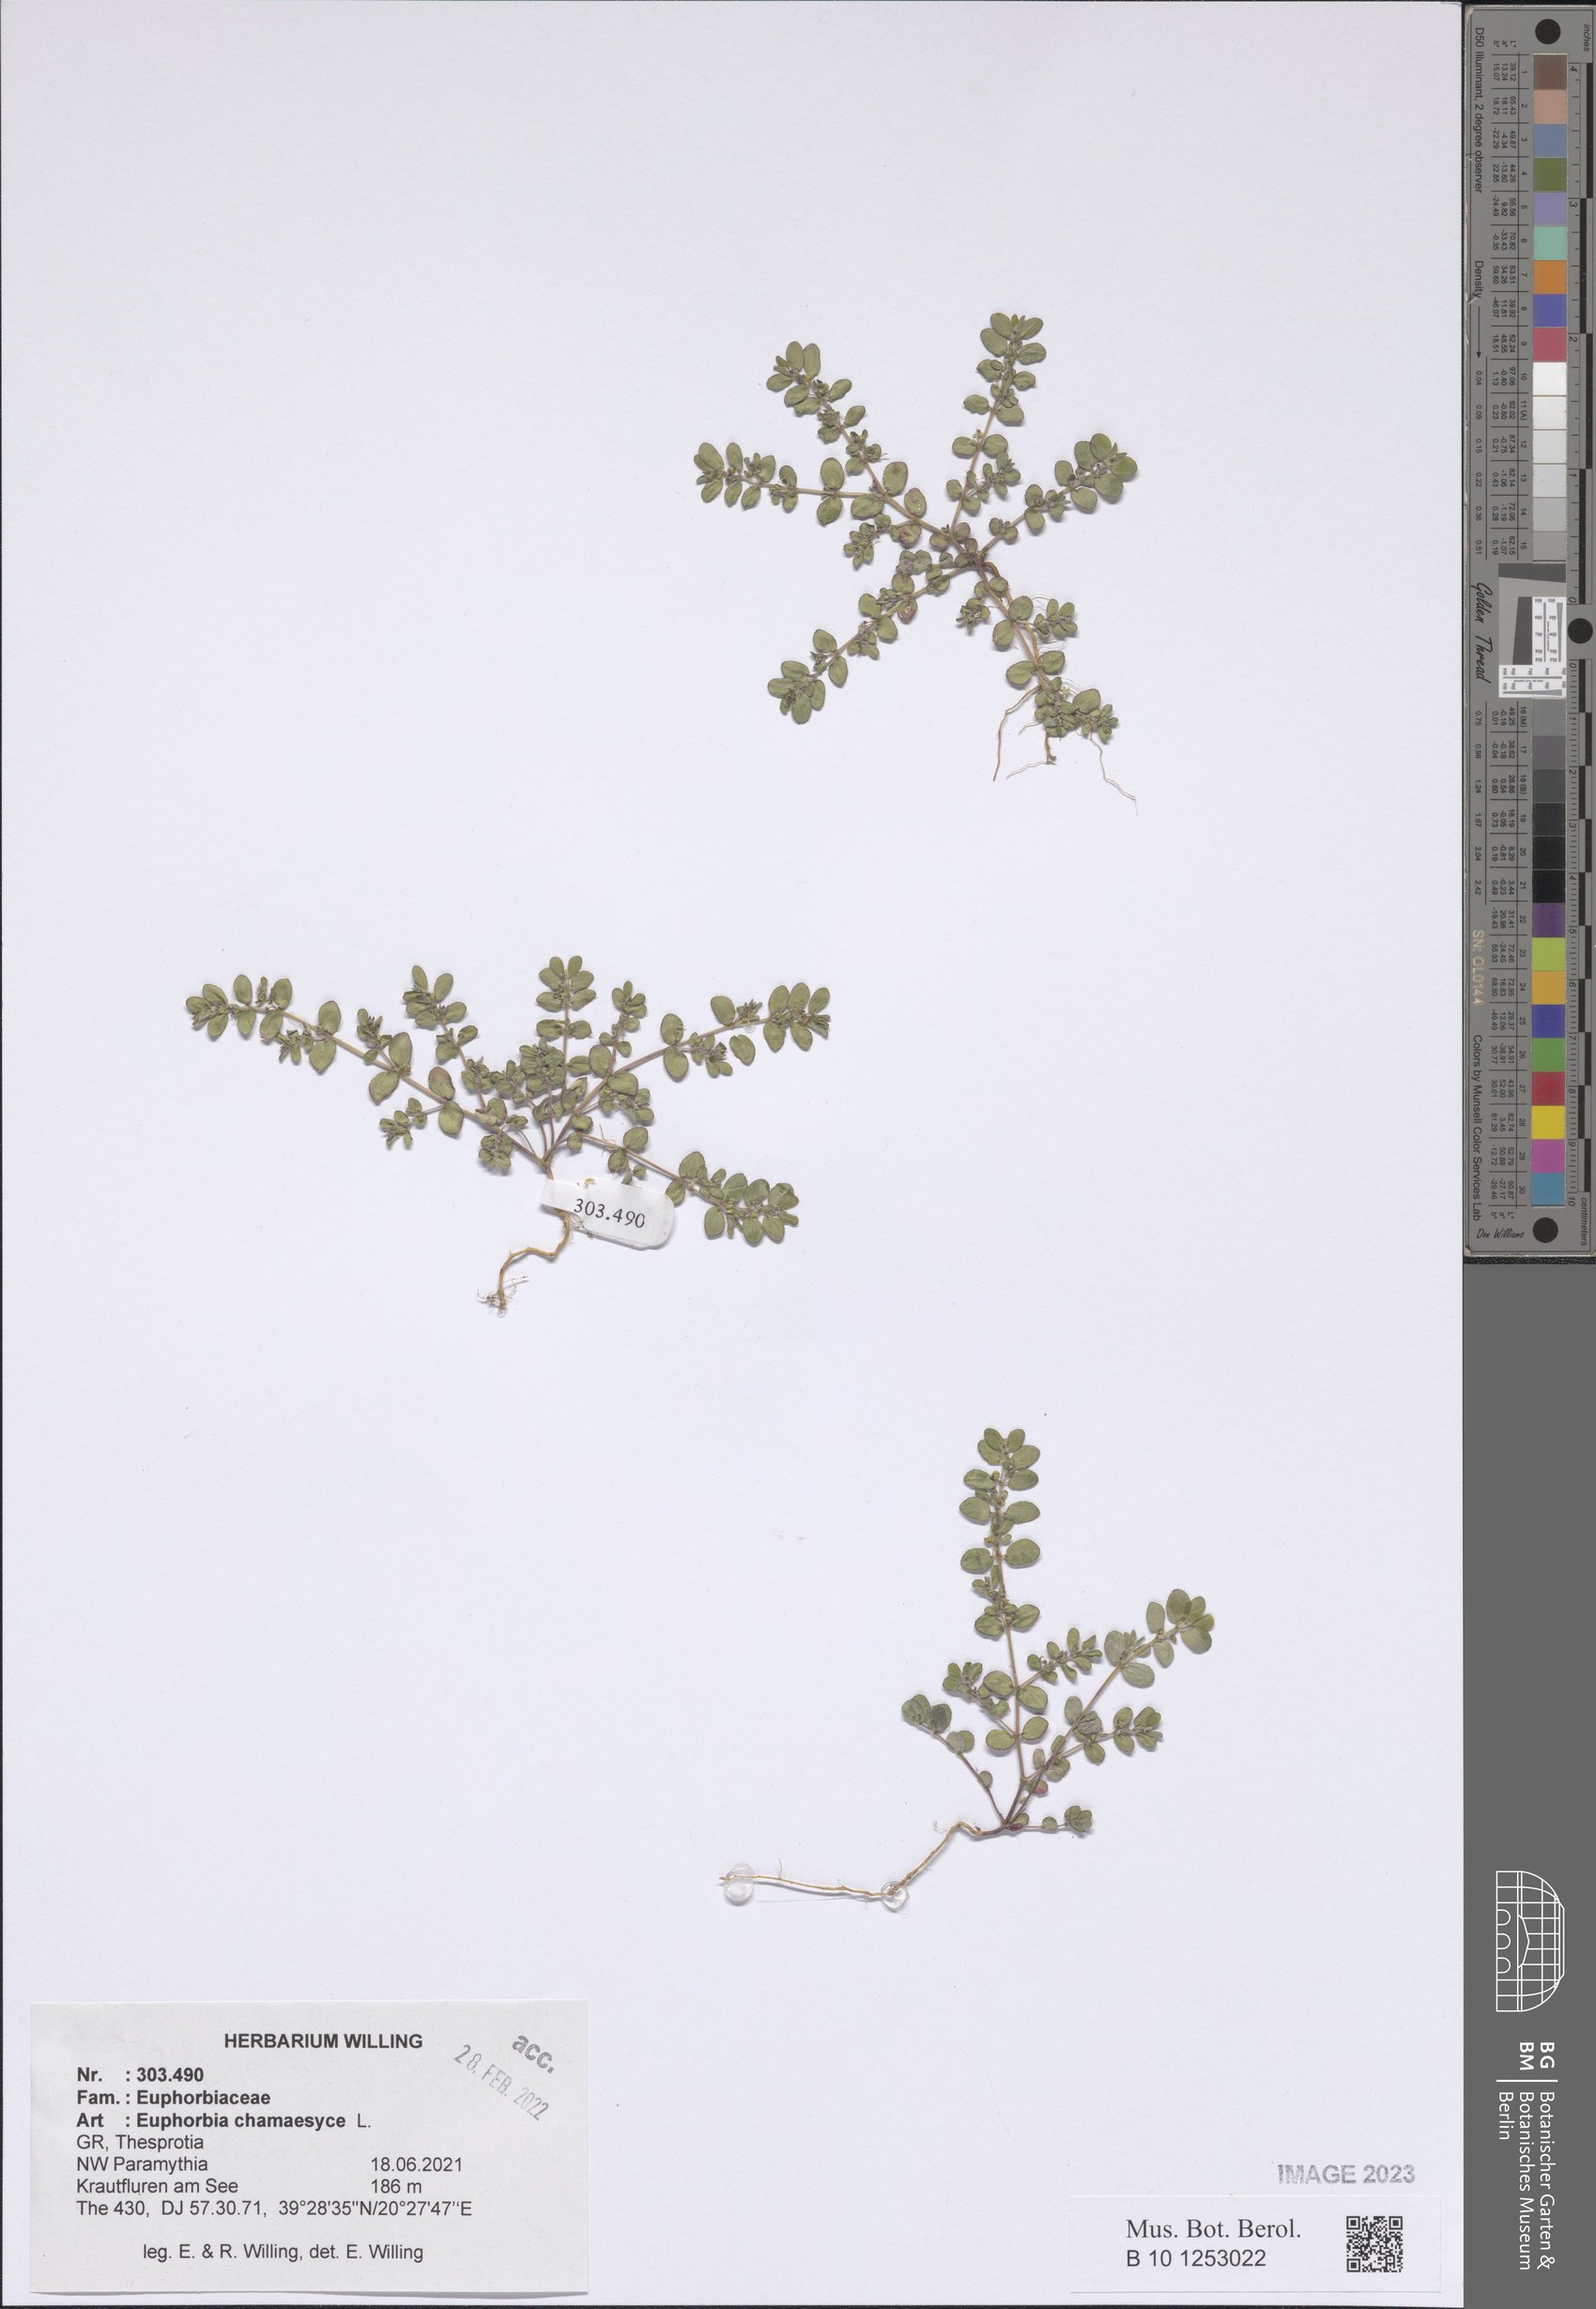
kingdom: Plantae
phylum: Tracheophyta
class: Magnoliopsida
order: Malpighiales
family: Euphorbiaceae
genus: Euphorbia
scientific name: Euphorbia chamaesyce
